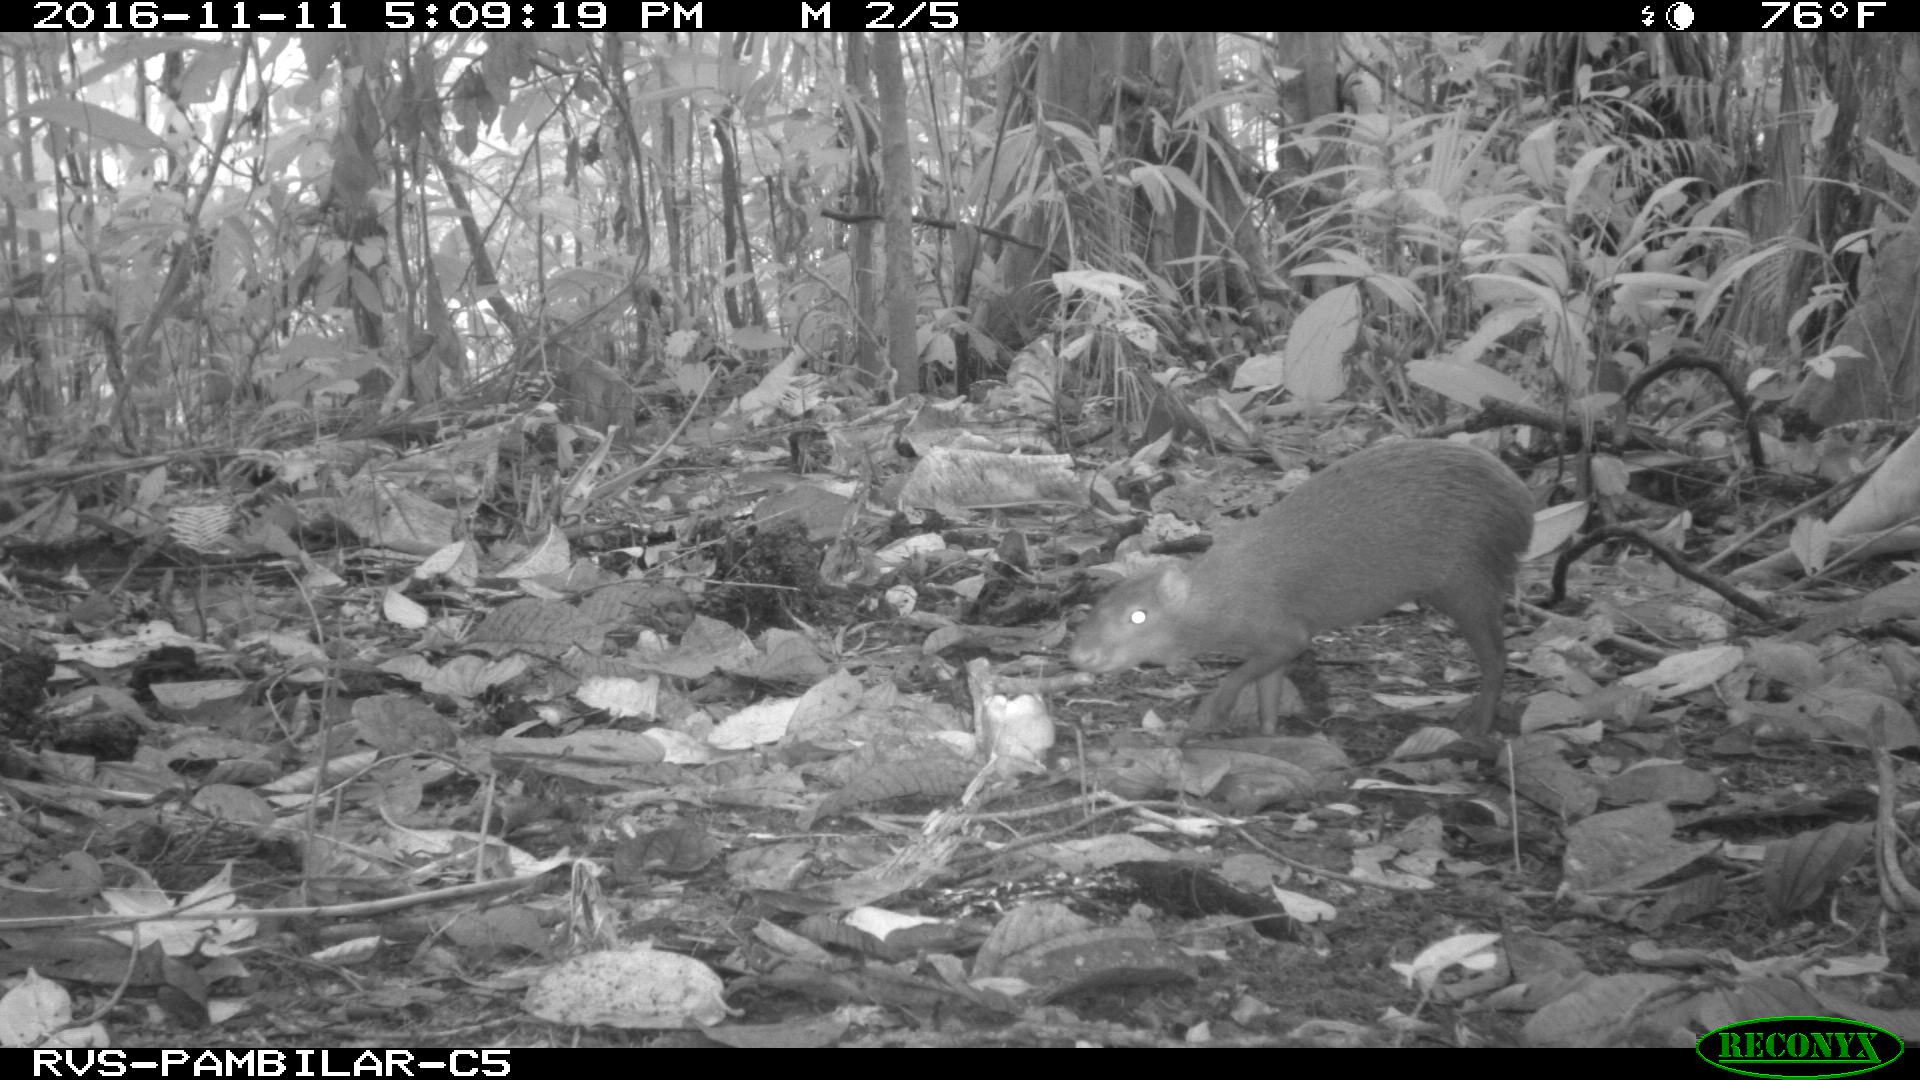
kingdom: Animalia
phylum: Chordata
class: Mammalia
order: Rodentia
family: Dasyproctidae
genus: Dasyprocta
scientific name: Dasyprocta punctata
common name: Central american agouti
